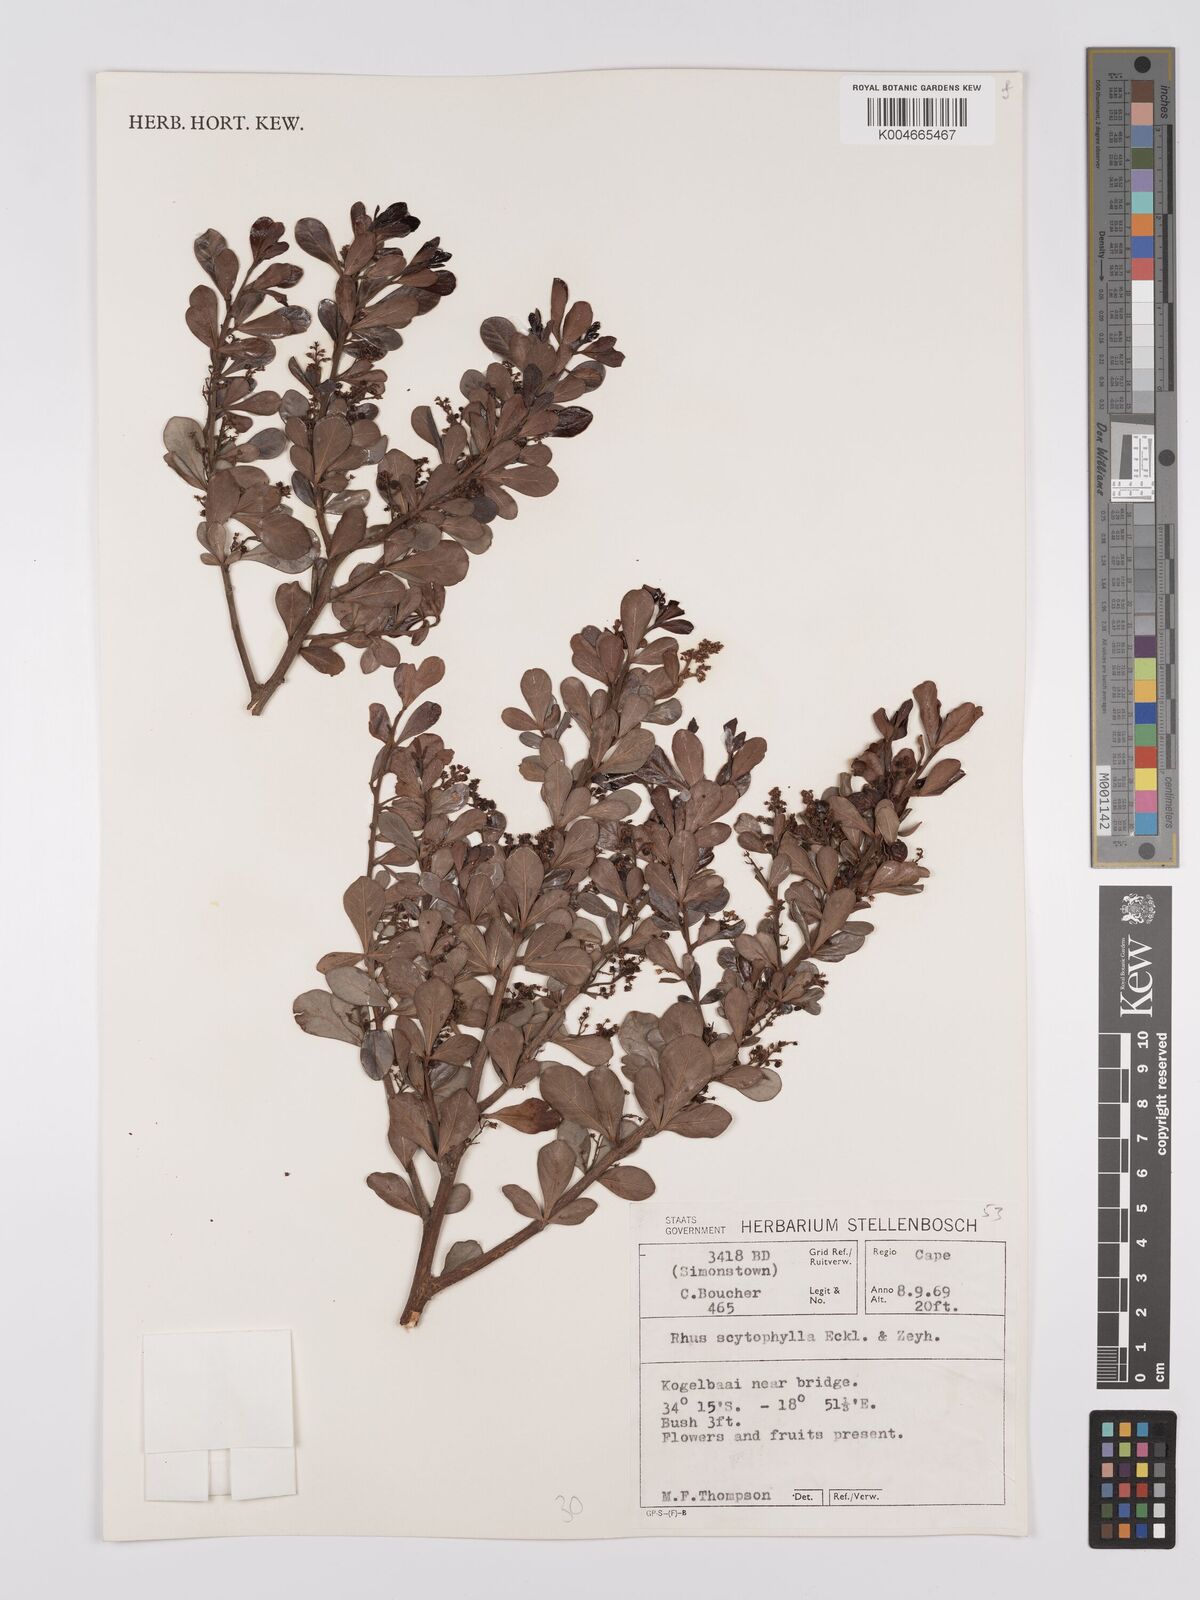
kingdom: Plantae
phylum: Tracheophyta
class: Magnoliopsida
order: Sapindales
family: Anacardiaceae
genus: Searsia
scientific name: Searsia scytophylla
